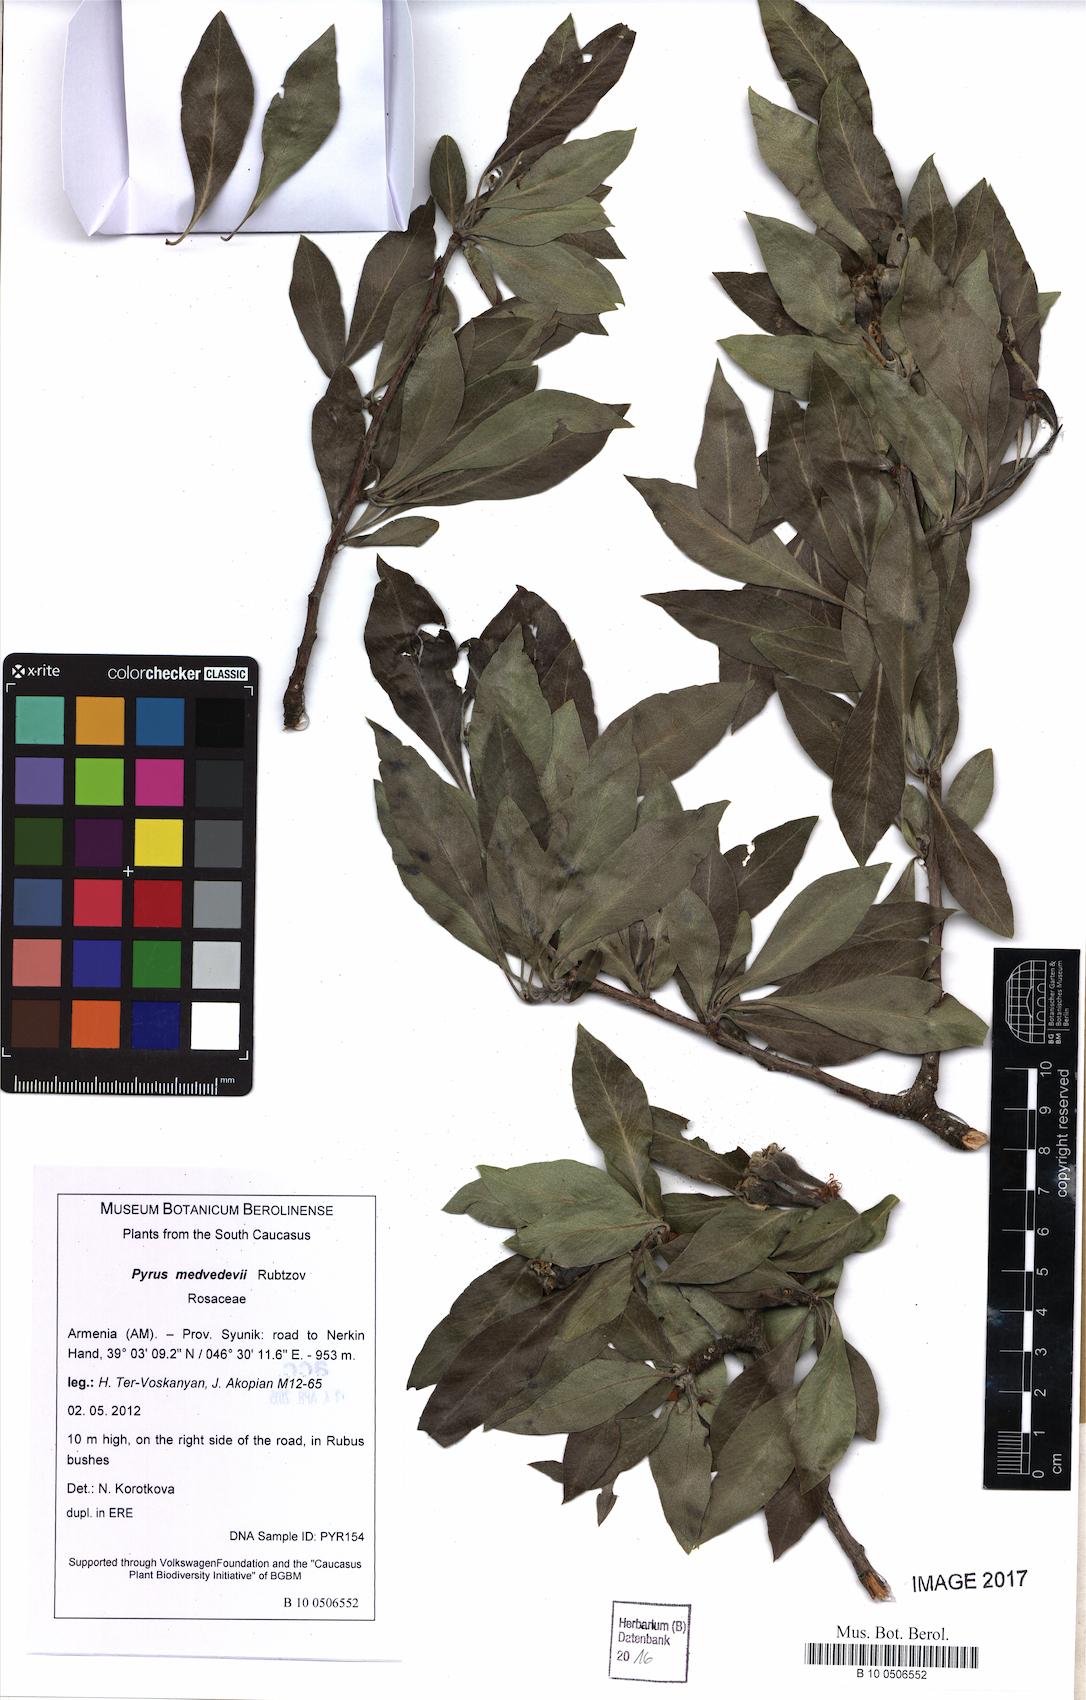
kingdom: Plantae
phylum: Tracheophyta
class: Magnoliopsida
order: Rosales
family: Rosaceae
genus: Pyrus
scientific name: Pyrus medvedevii
